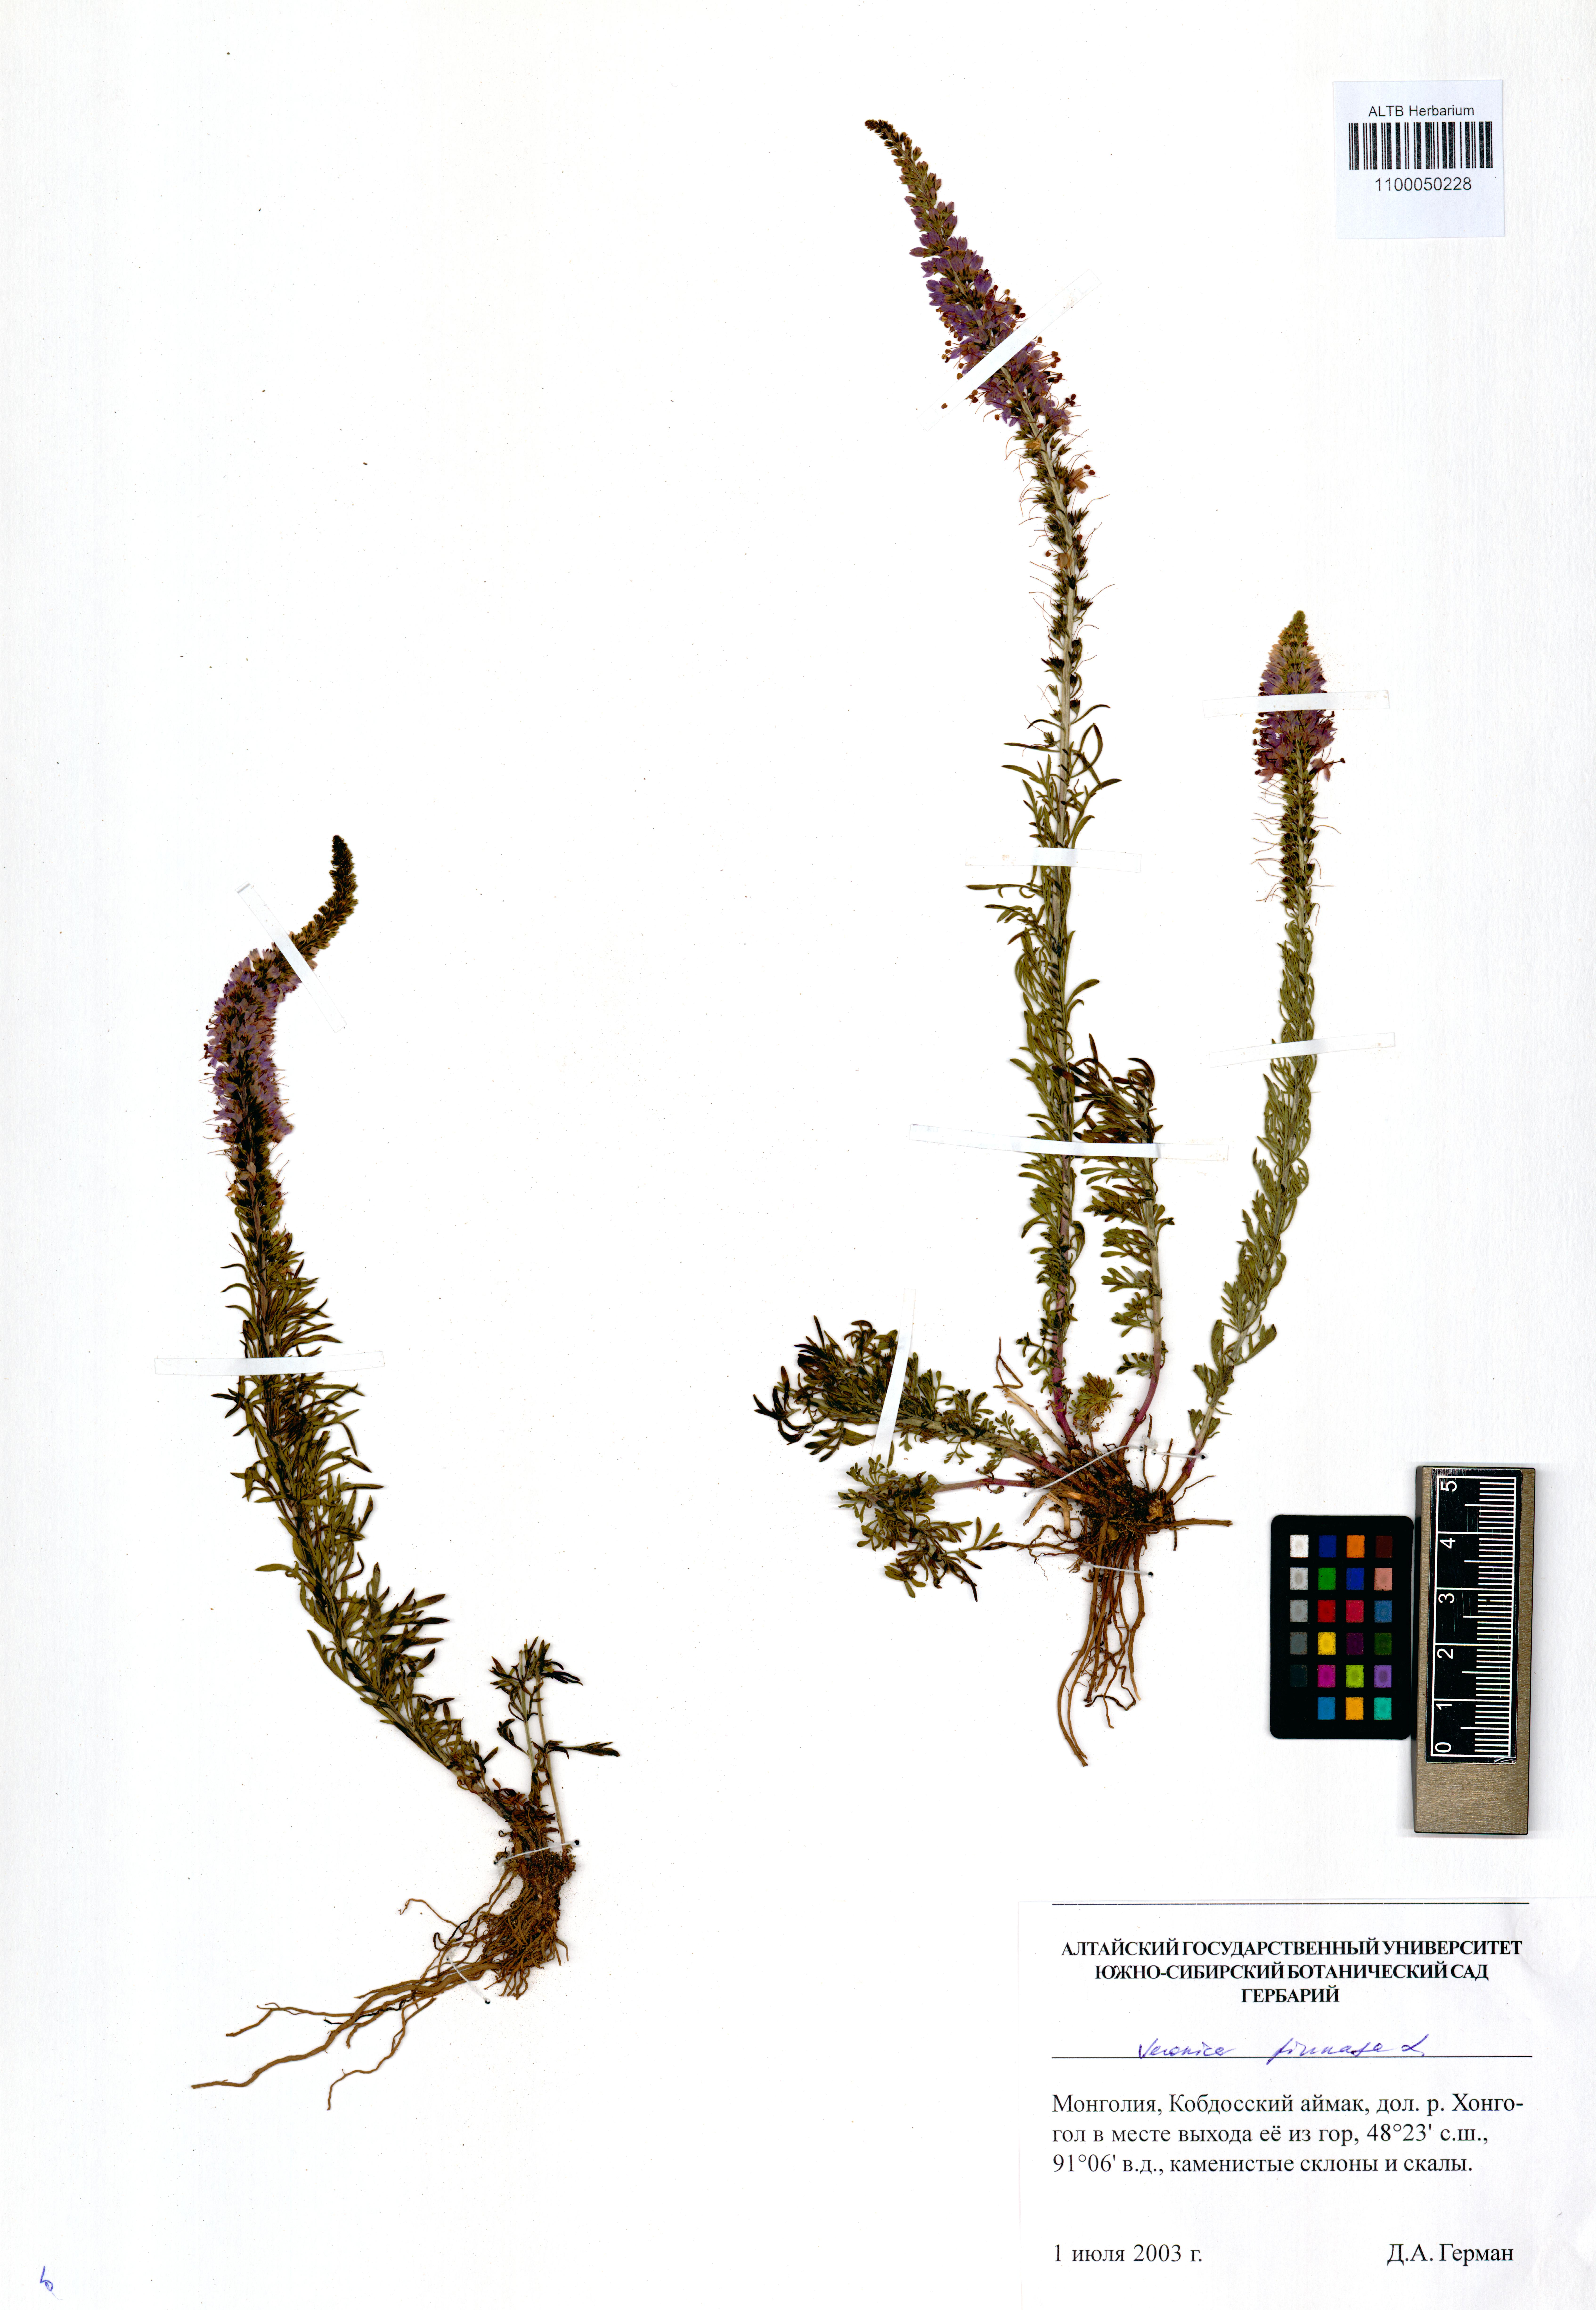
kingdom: Plantae
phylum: Tracheophyta
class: Magnoliopsida
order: Lamiales
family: Plantaginaceae
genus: Veronica
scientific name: Veronica pinnata
